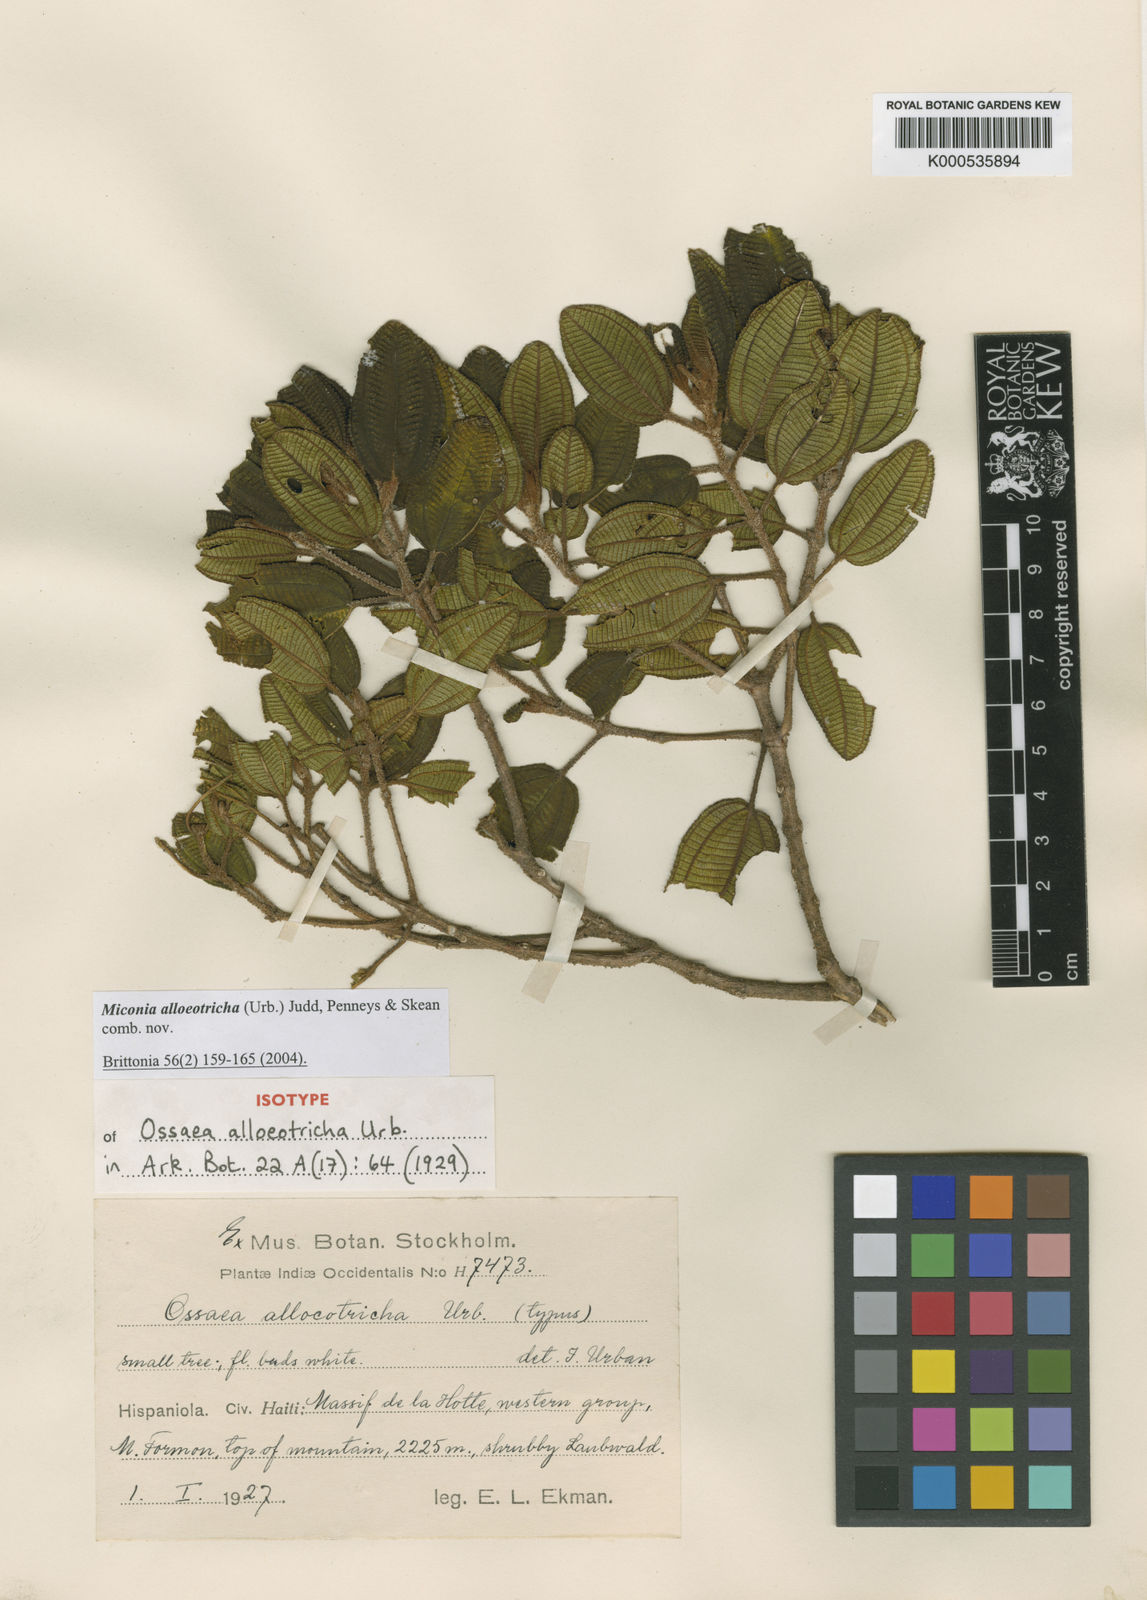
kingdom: Plantae
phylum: Tracheophyta
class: Magnoliopsida
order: Myrtales
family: Melastomataceae
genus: Miconia
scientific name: Miconia alloeotricha
